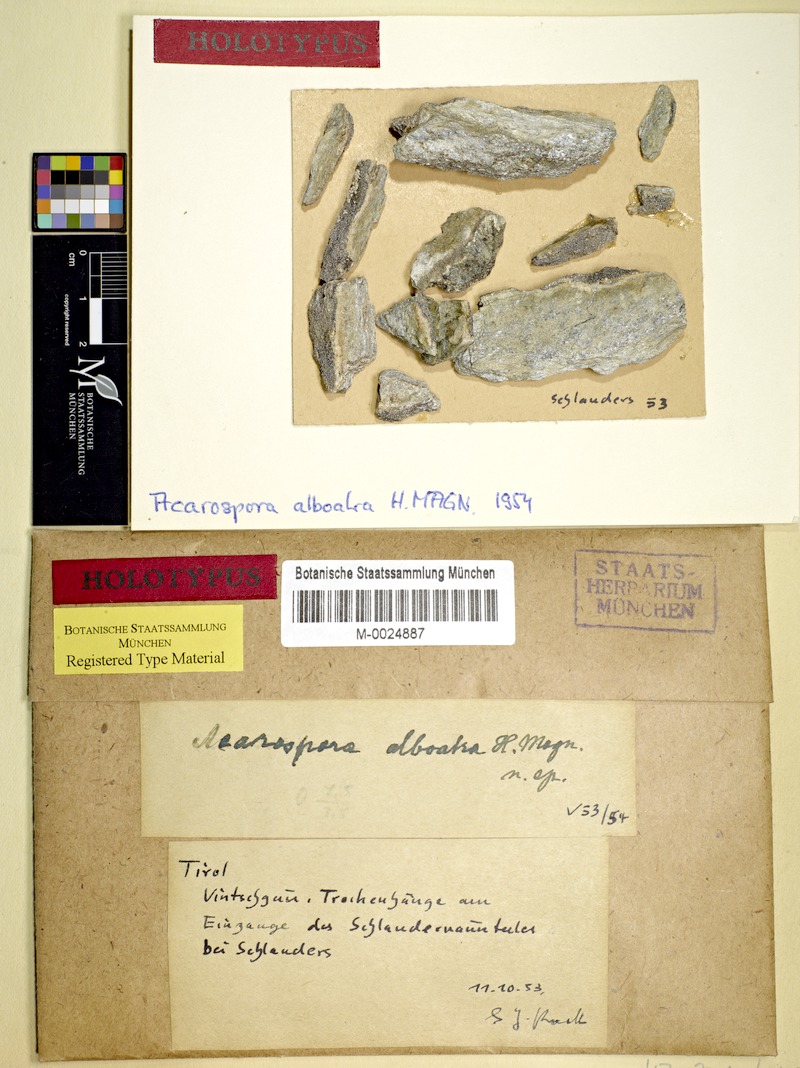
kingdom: Fungi
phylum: Ascomycota
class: Lecanoromycetes
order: Acarosporales
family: Acarosporaceae
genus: Acarospora
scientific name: Acarospora
